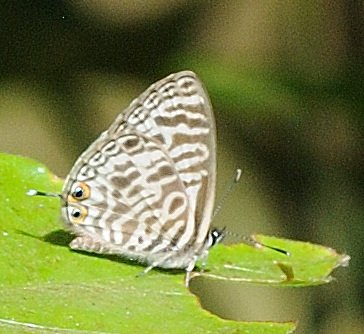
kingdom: Animalia
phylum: Arthropoda
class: Insecta
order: Lepidoptera
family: Lycaenidae
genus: Leptotes
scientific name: Leptotes pirithous
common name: Lang's Short-tailed Blue
